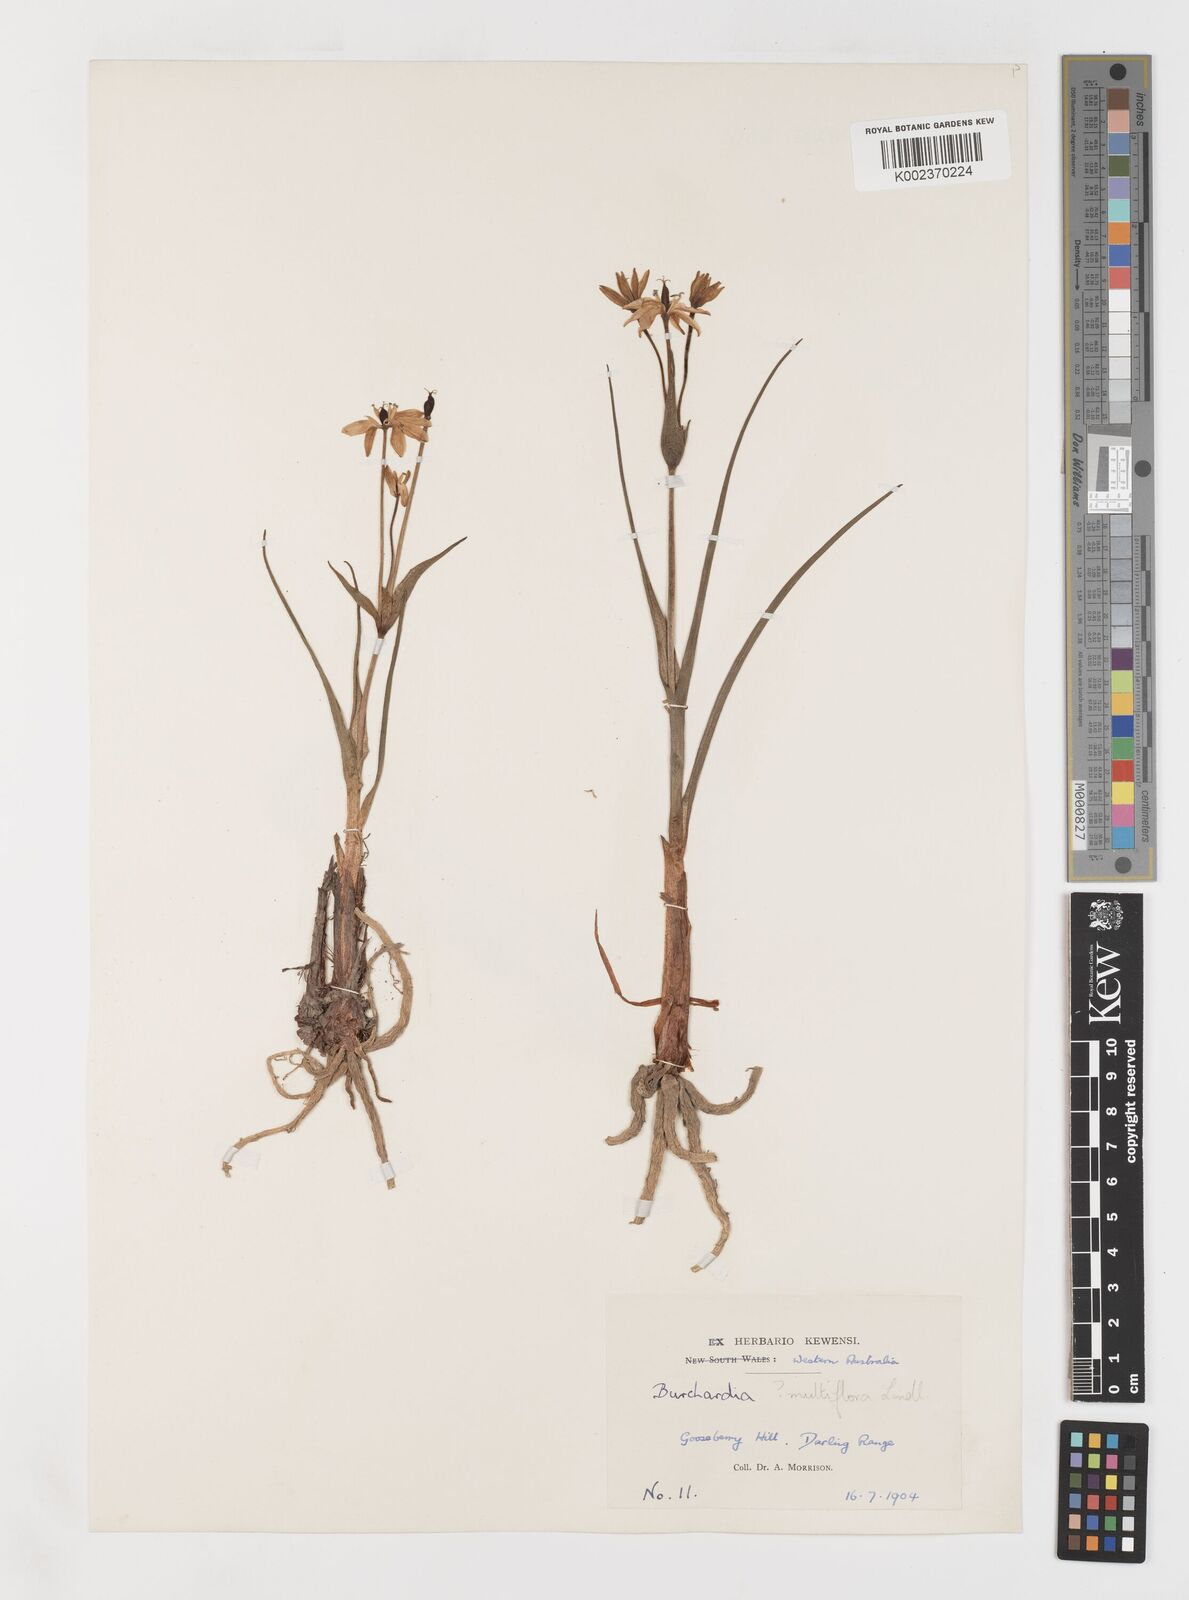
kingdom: Plantae
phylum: Tracheophyta
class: Liliopsida
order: Liliales
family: Colchicaceae
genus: Burchardia
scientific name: Burchardia multiflora
